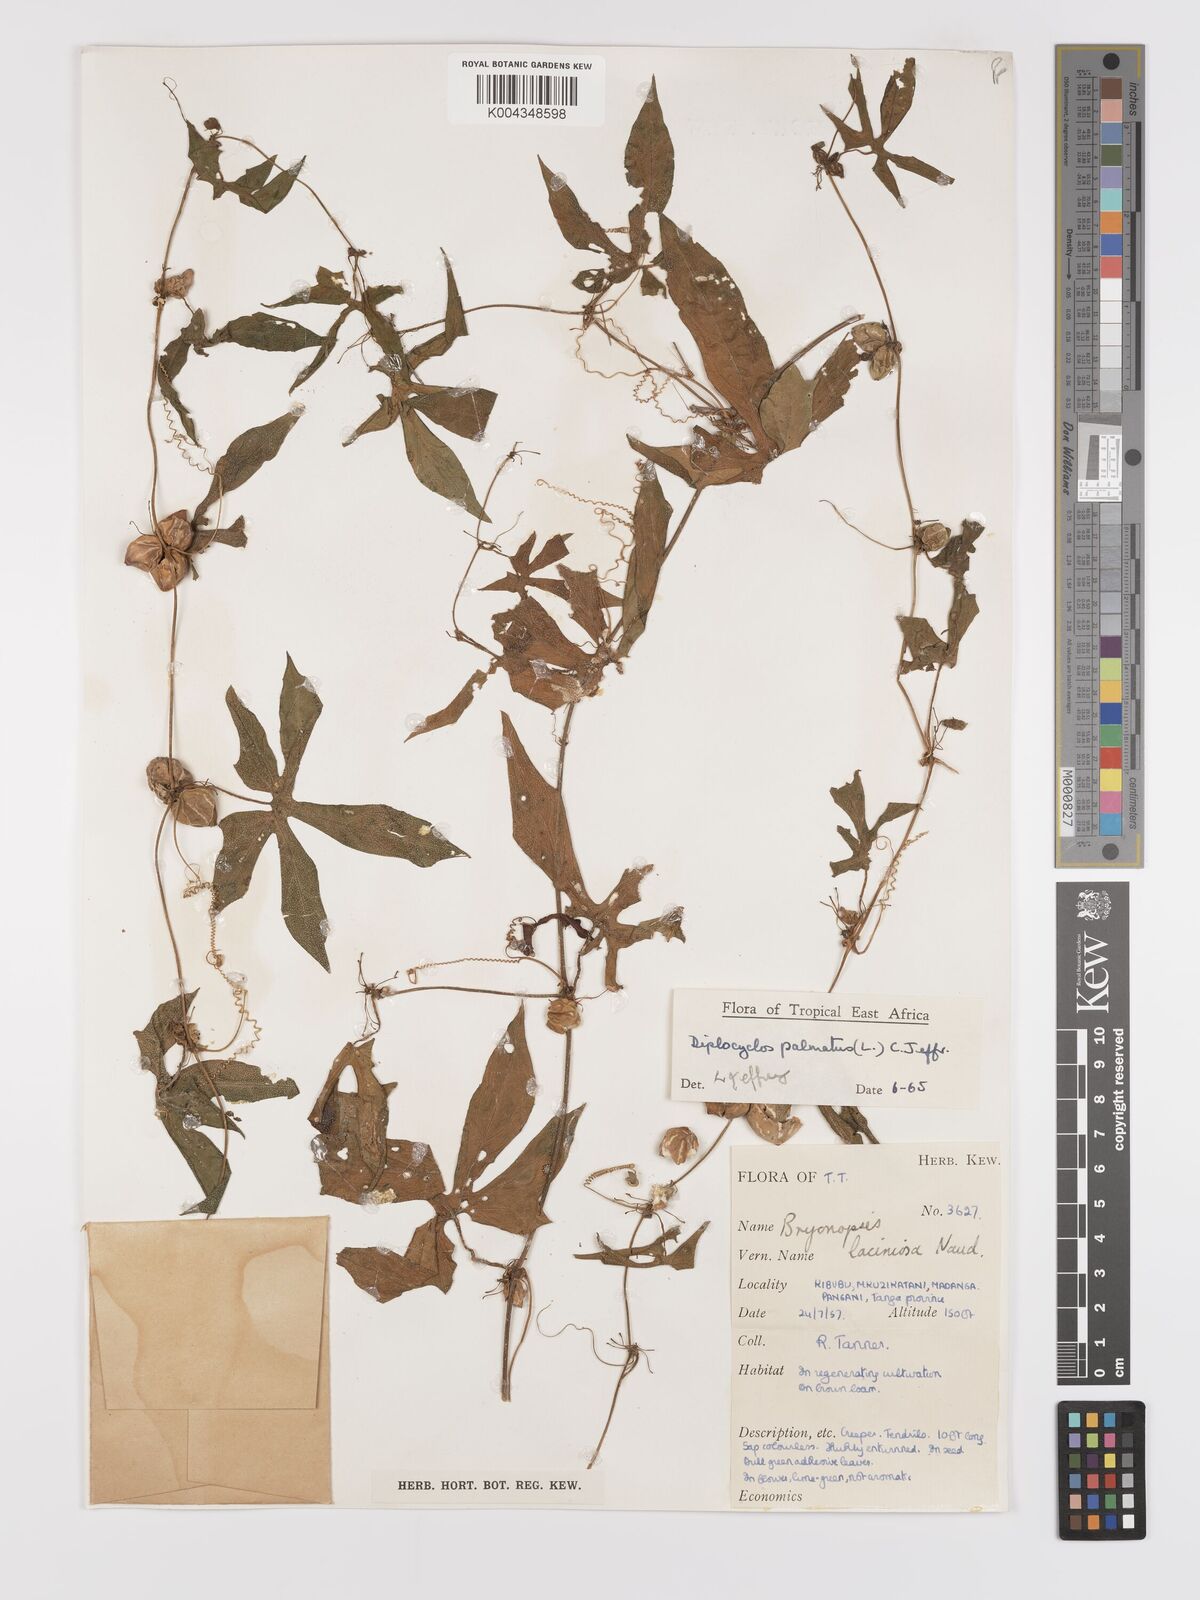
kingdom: Plantae
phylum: Tracheophyta
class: Magnoliopsida
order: Cucurbitales
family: Cucurbitaceae
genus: Diplocyclos
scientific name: Diplocyclos palmatus
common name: Striped-cucumber
